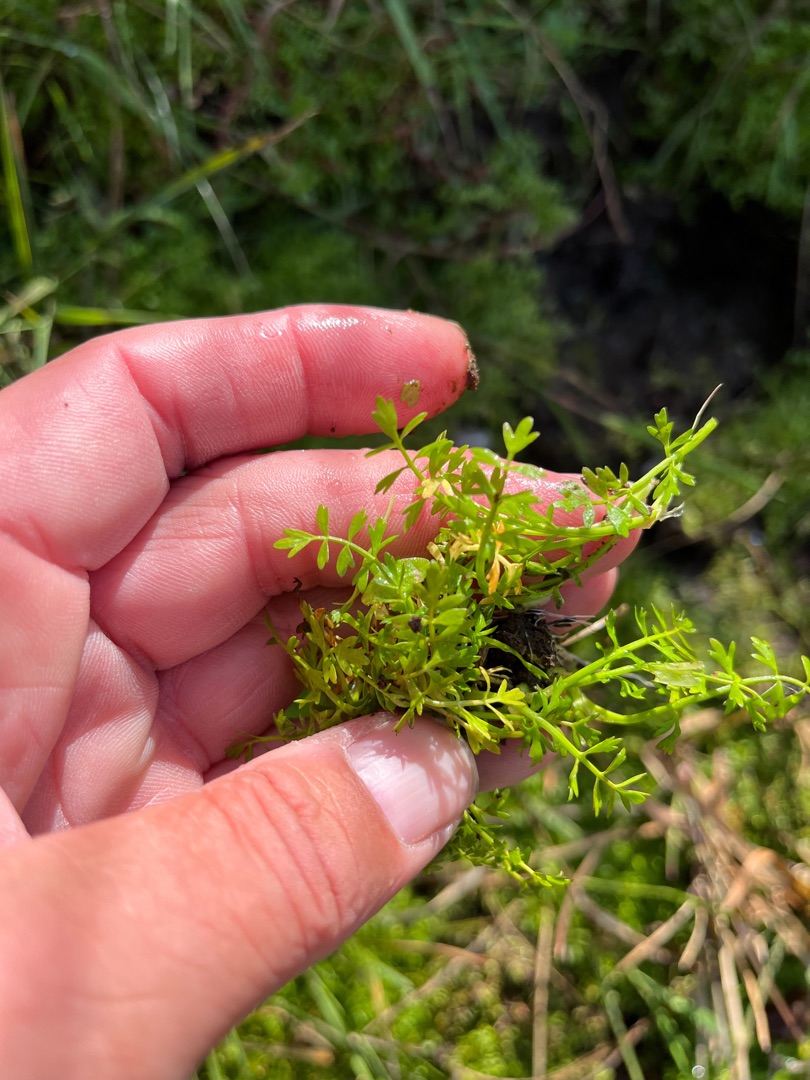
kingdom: Plantae
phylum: Tracheophyta
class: Magnoliopsida
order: Apiales
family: Apiaceae
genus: Helosciadium
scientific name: Helosciadium inundatum
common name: Svømmende sumpskærm
